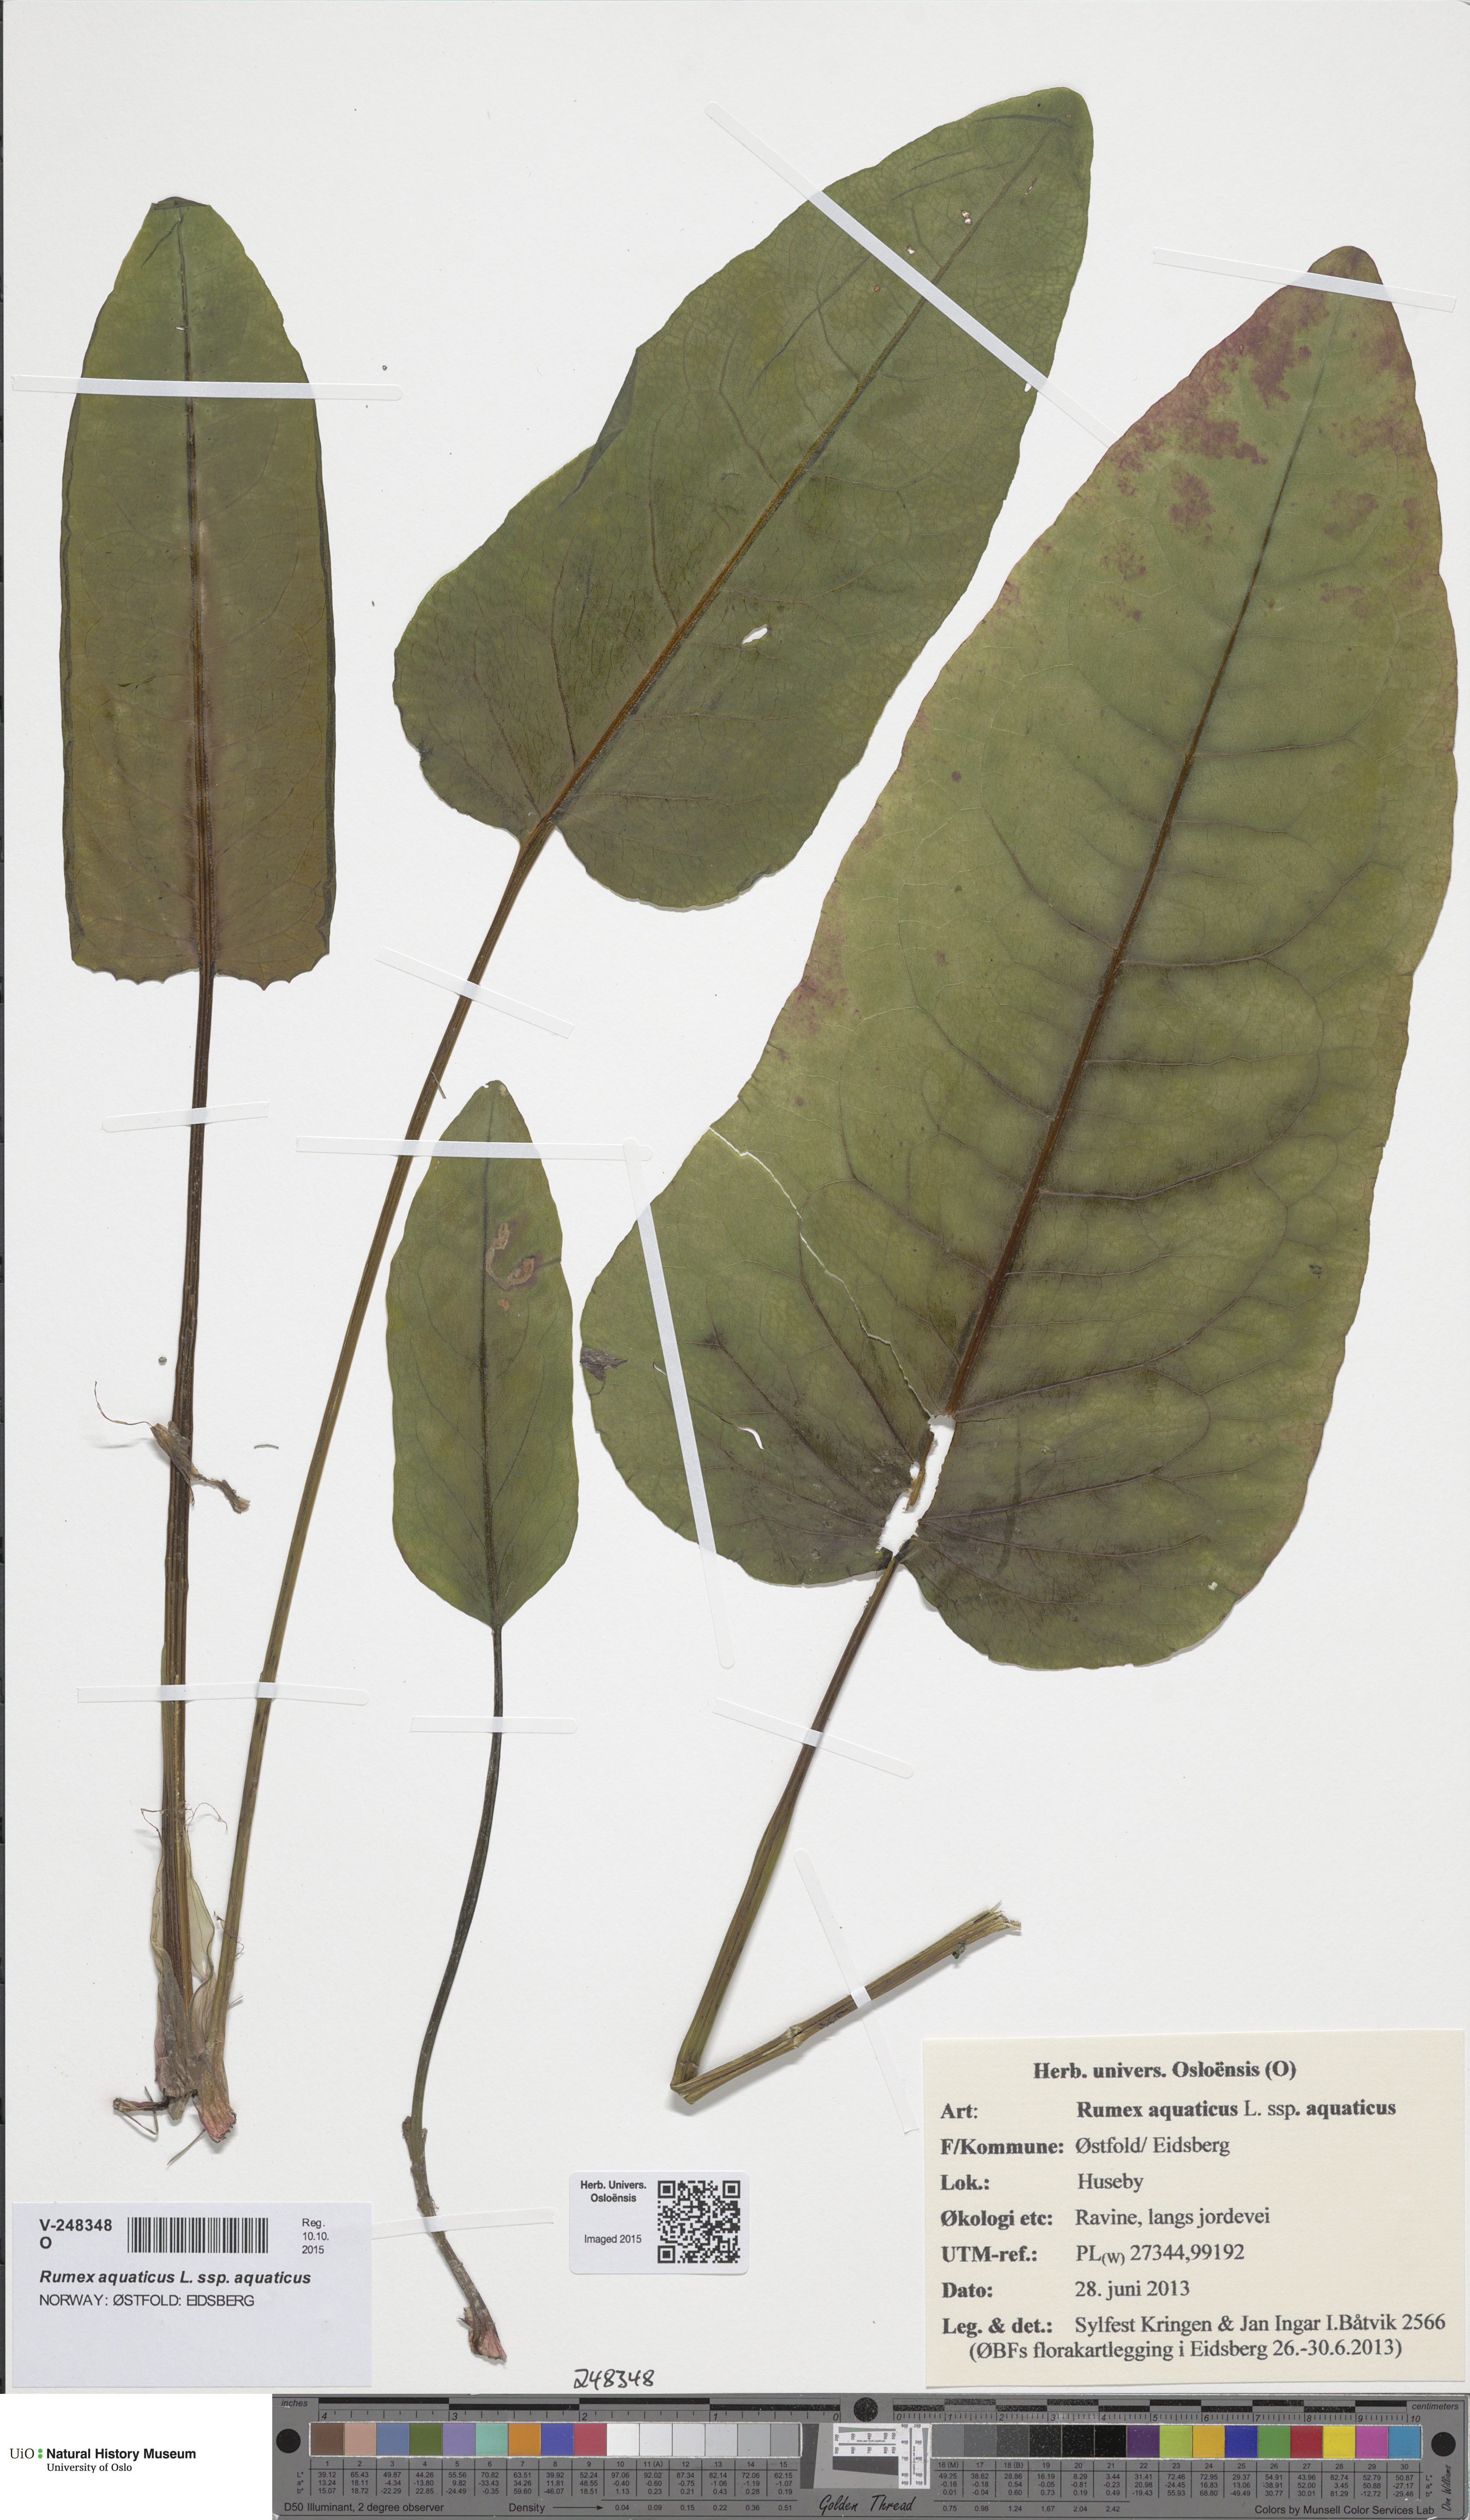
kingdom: Plantae
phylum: Tracheophyta
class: Magnoliopsida
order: Caryophyllales
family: Polygonaceae
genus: Rumex
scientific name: Rumex aquaticus
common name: Scottish dock
